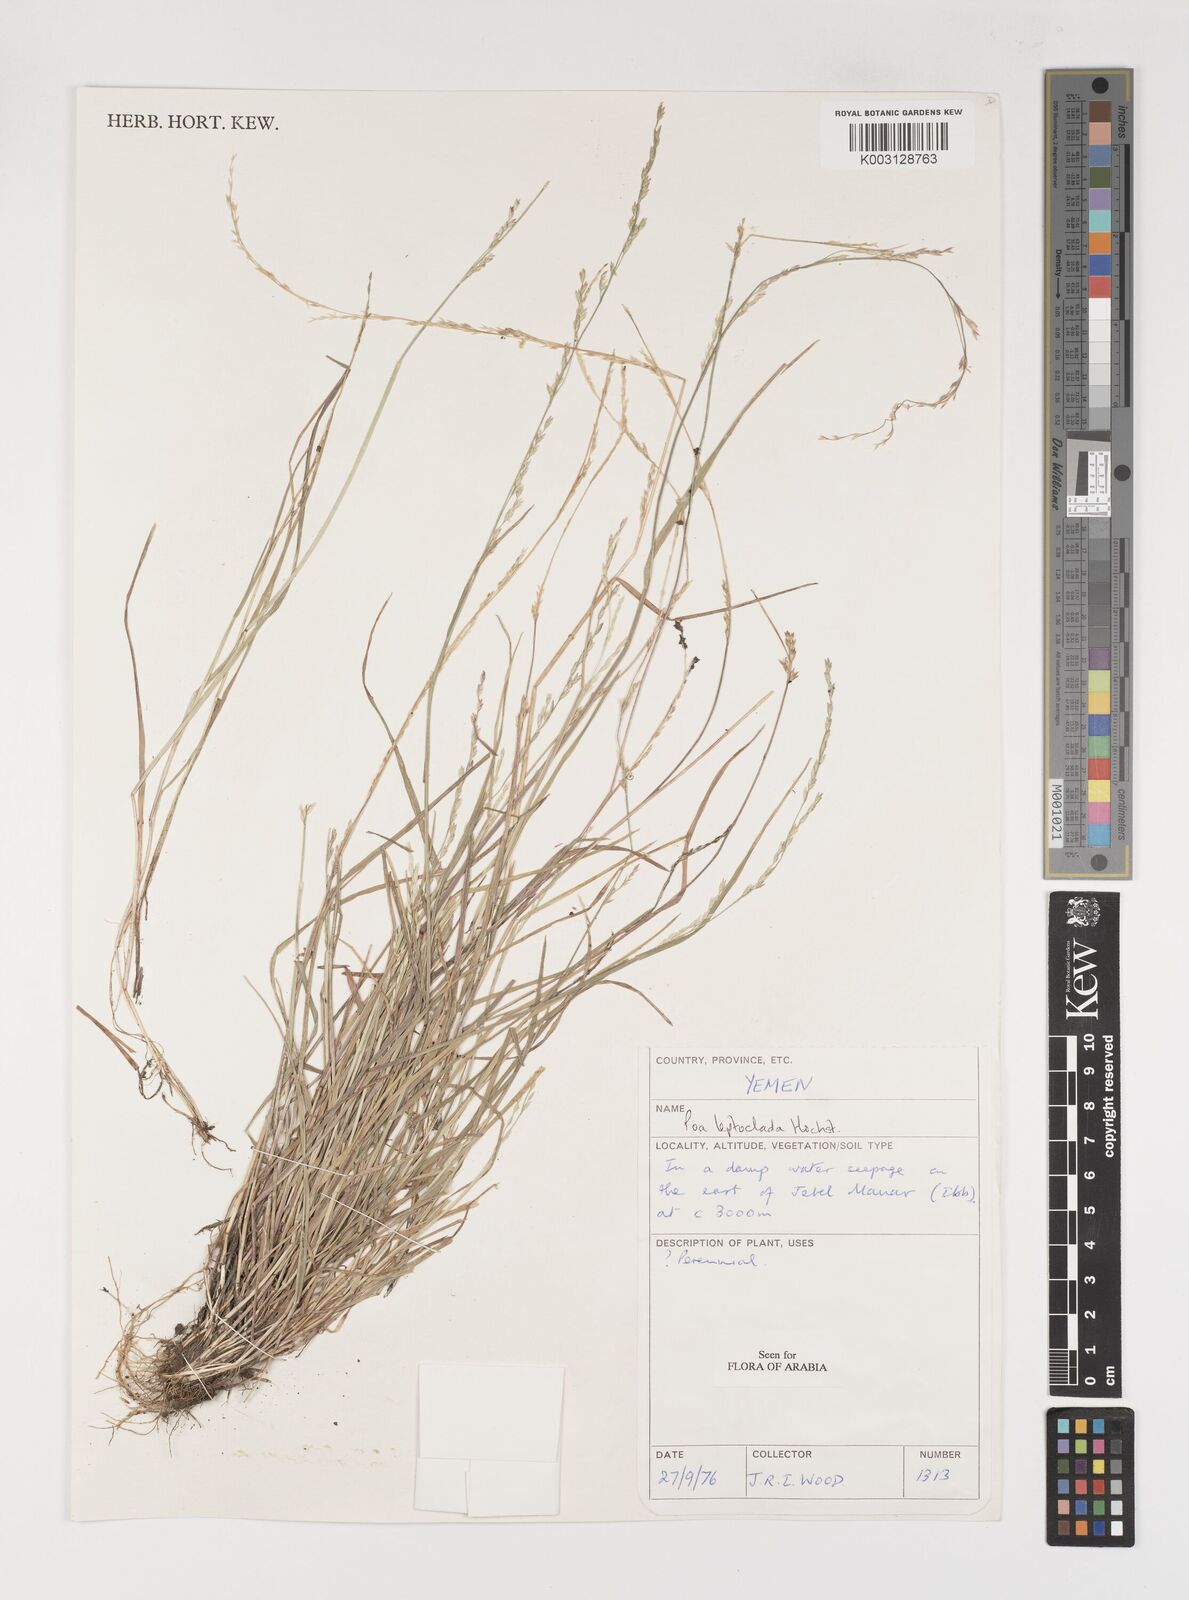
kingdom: Plantae
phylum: Tracheophyta
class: Liliopsida
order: Poales
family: Poaceae
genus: Poa
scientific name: Poa leptoclada
